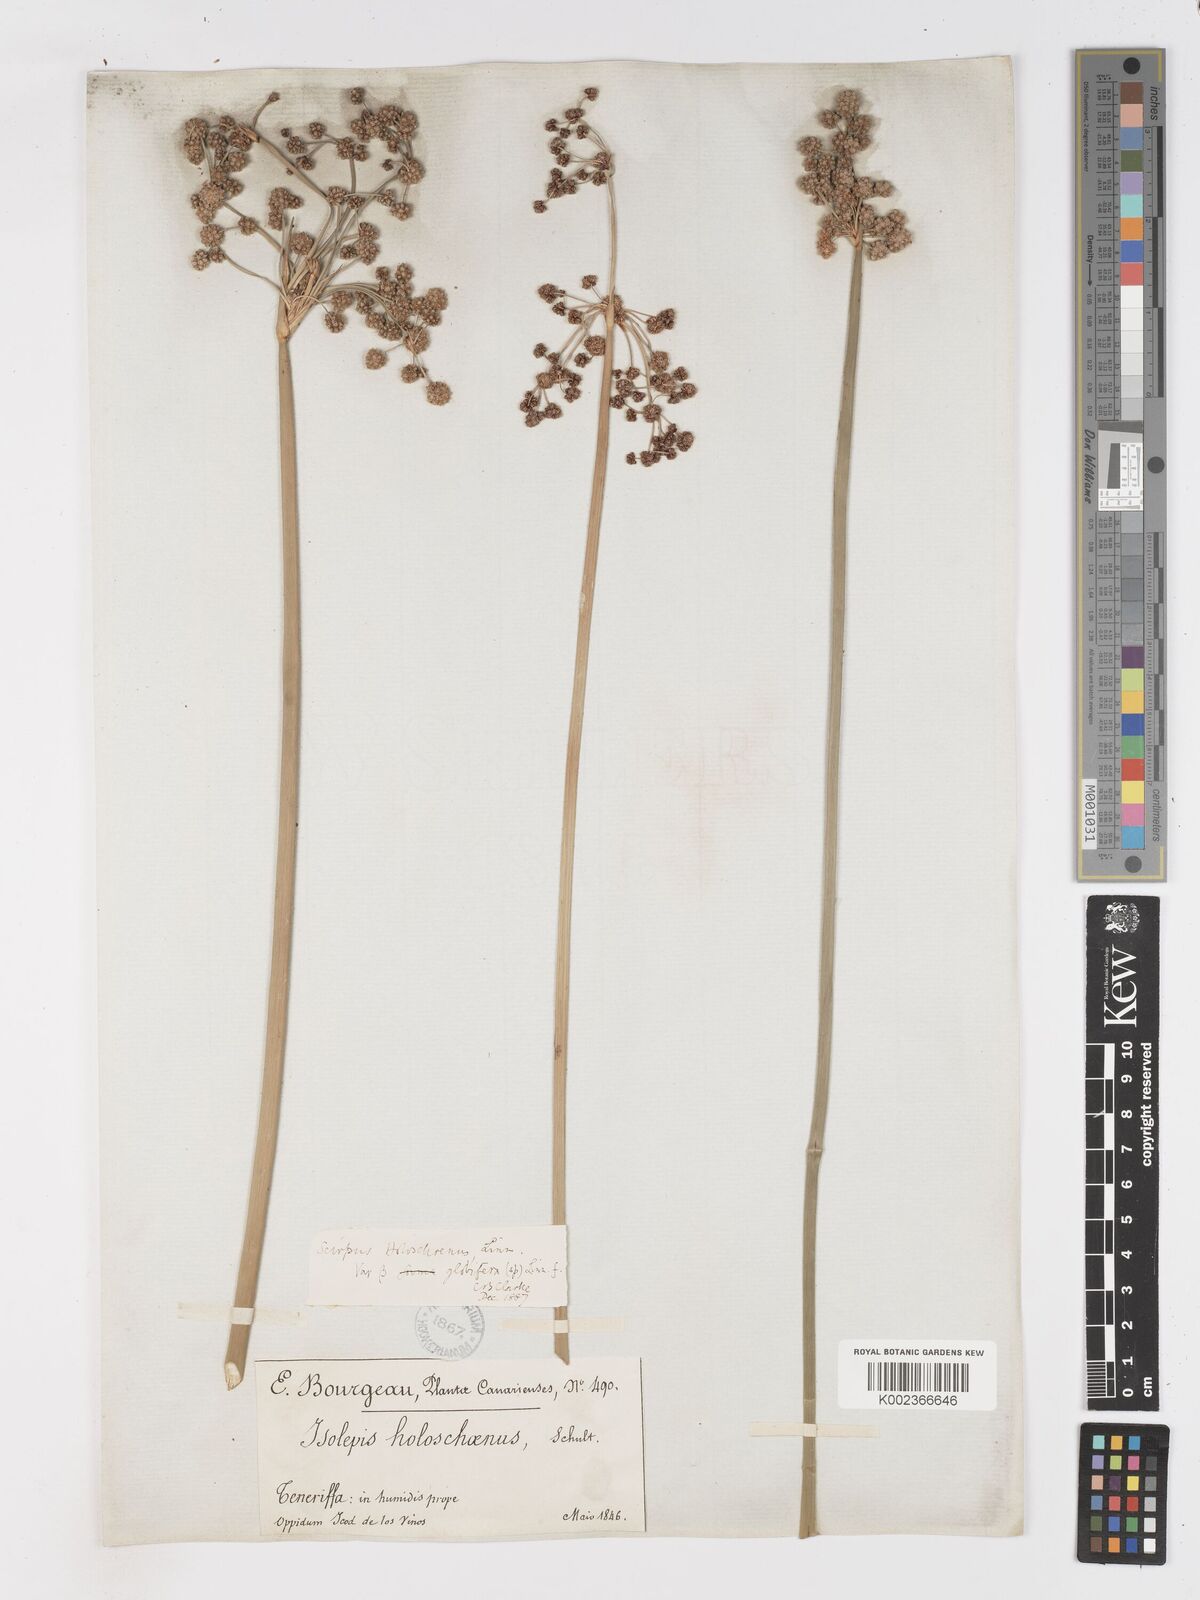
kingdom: Plantae
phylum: Tracheophyta
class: Liliopsida
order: Poales
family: Cyperaceae
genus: Scirpoides
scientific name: Scirpoides holoschoenus
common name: Round-headed club-rush
